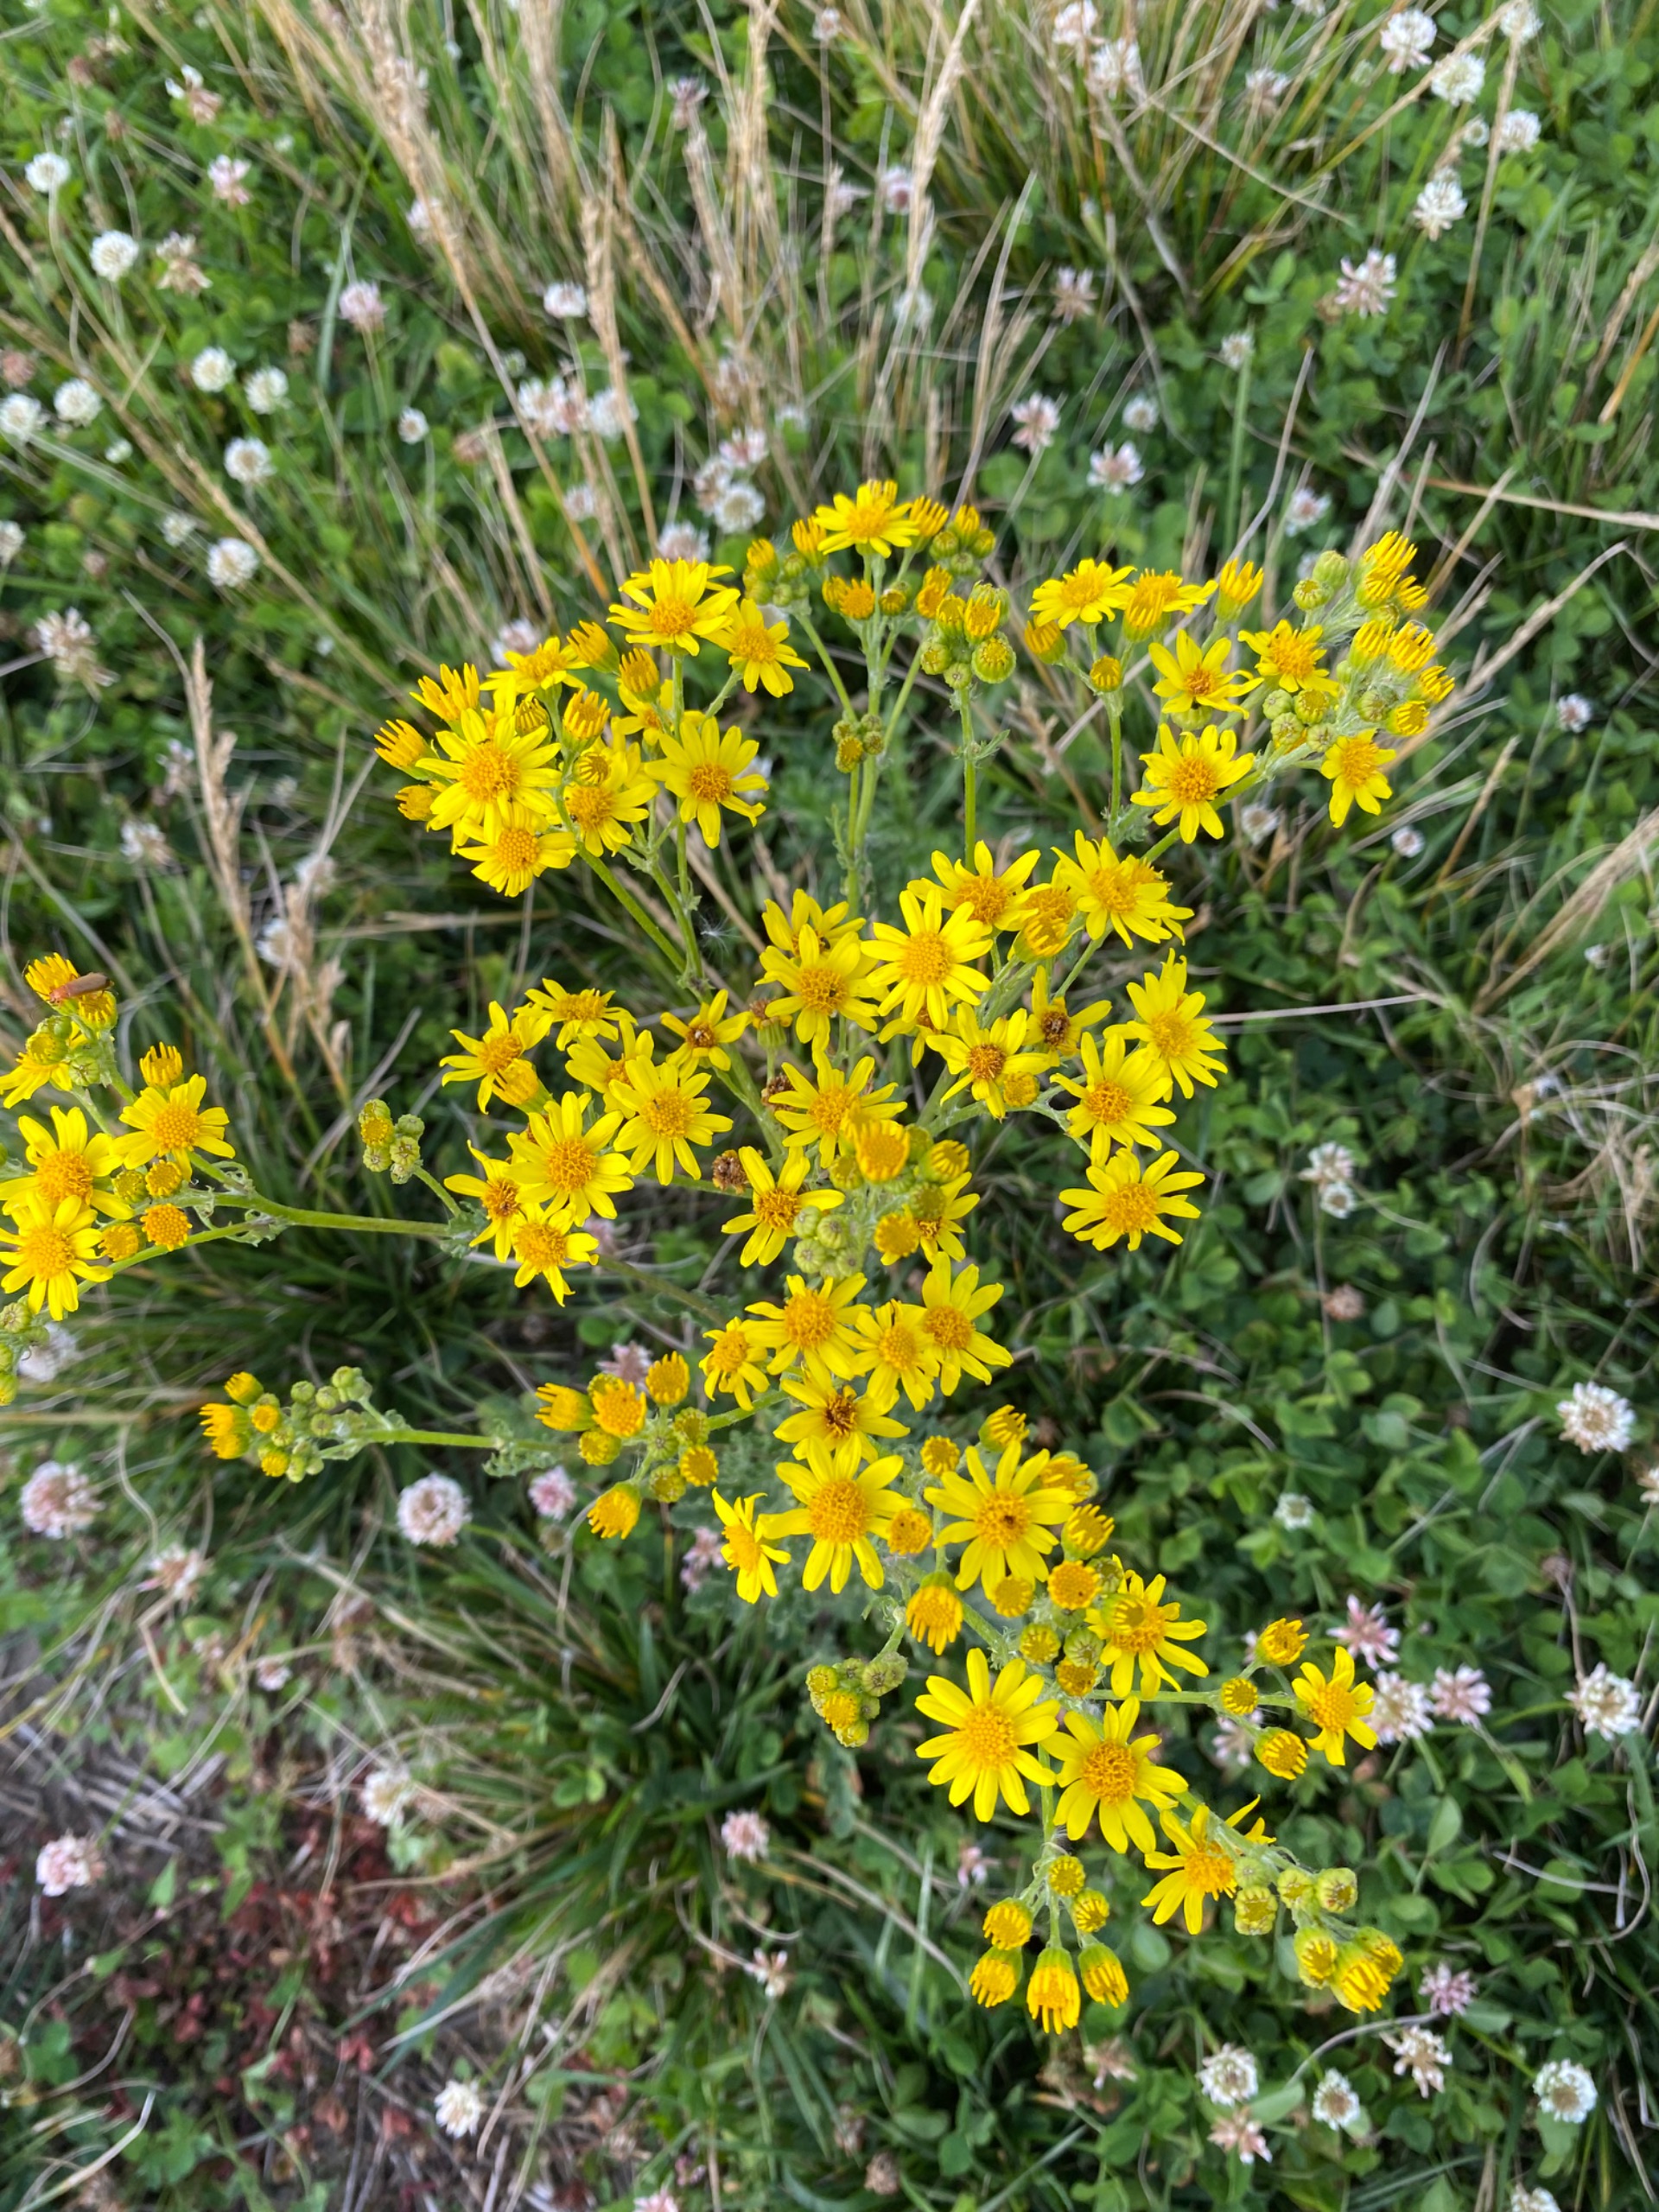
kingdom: Plantae
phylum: Tracheophyta
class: Magnoliopsida
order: Asterales
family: Asteraceae
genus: Jacobaea
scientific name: Jacobaea vulgaris
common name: Eng-brandbæger
